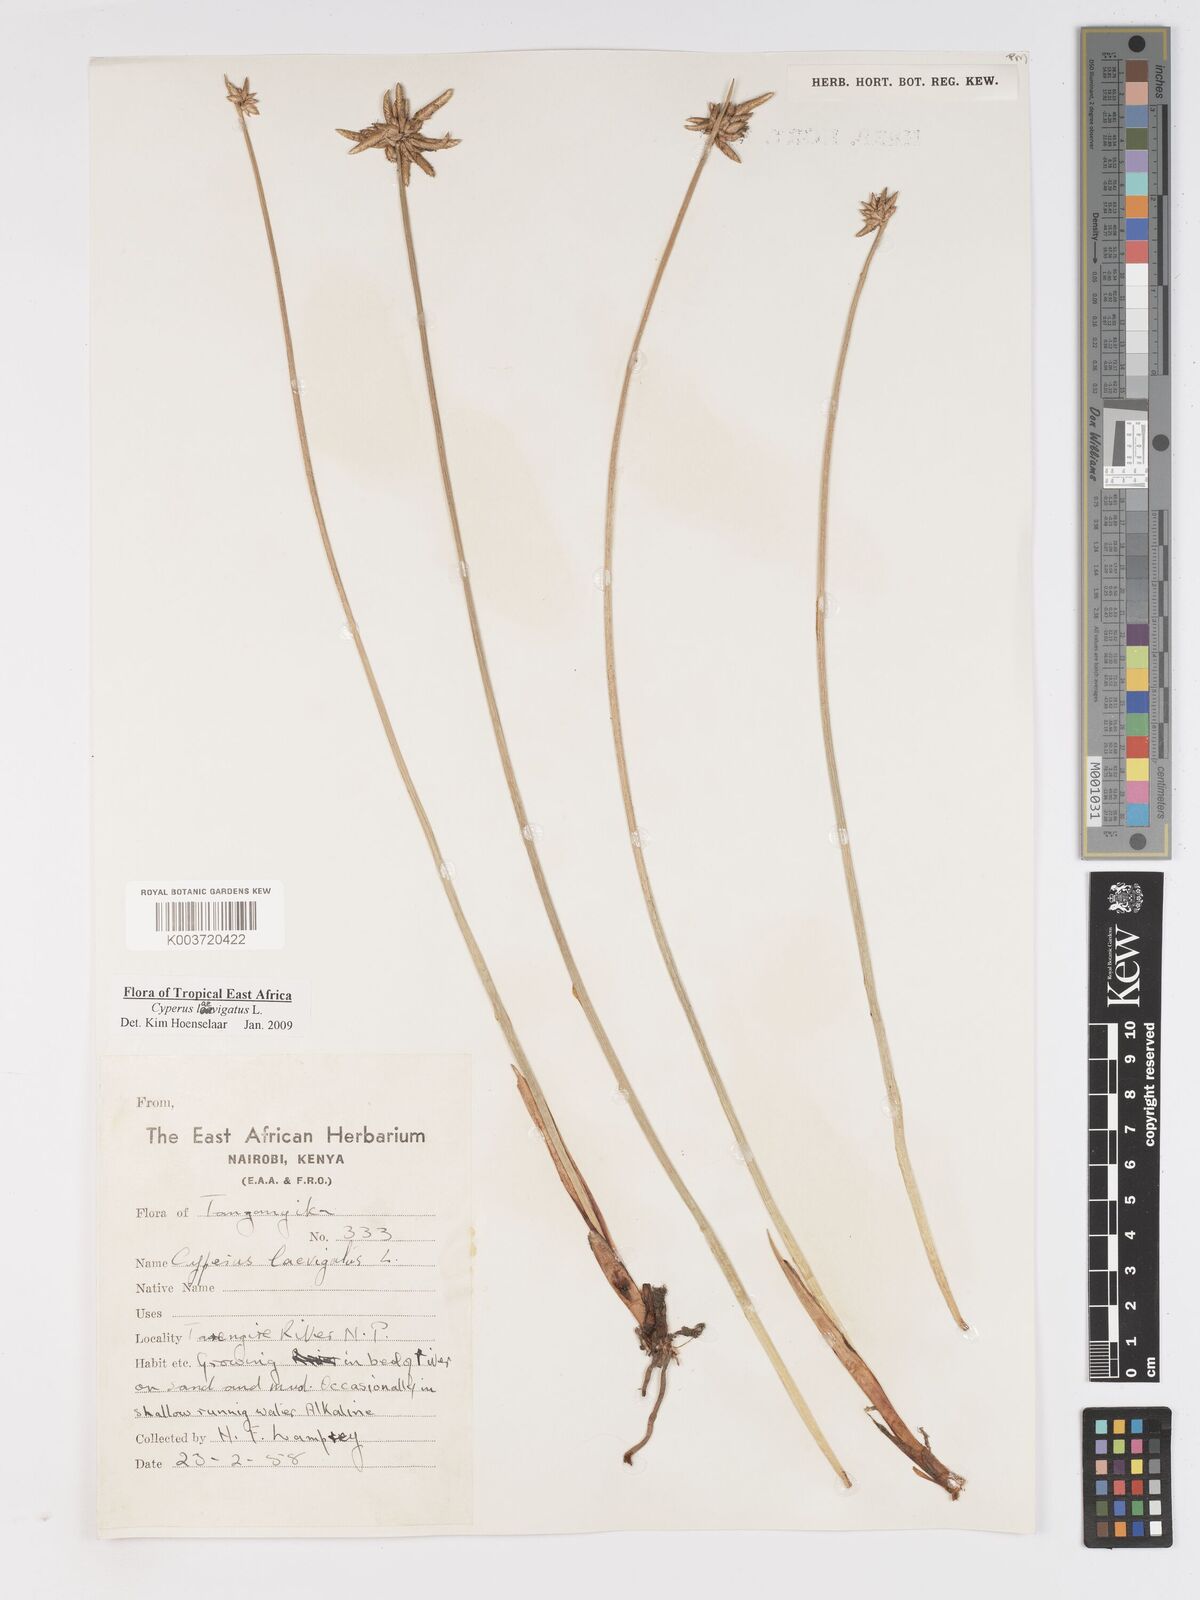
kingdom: Plantae
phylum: Tracheophyta
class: Liliopsida
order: Poales
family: Cyperaceae
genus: Cyperus
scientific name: Cyperus laevigatus
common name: Smooth flat sedge
